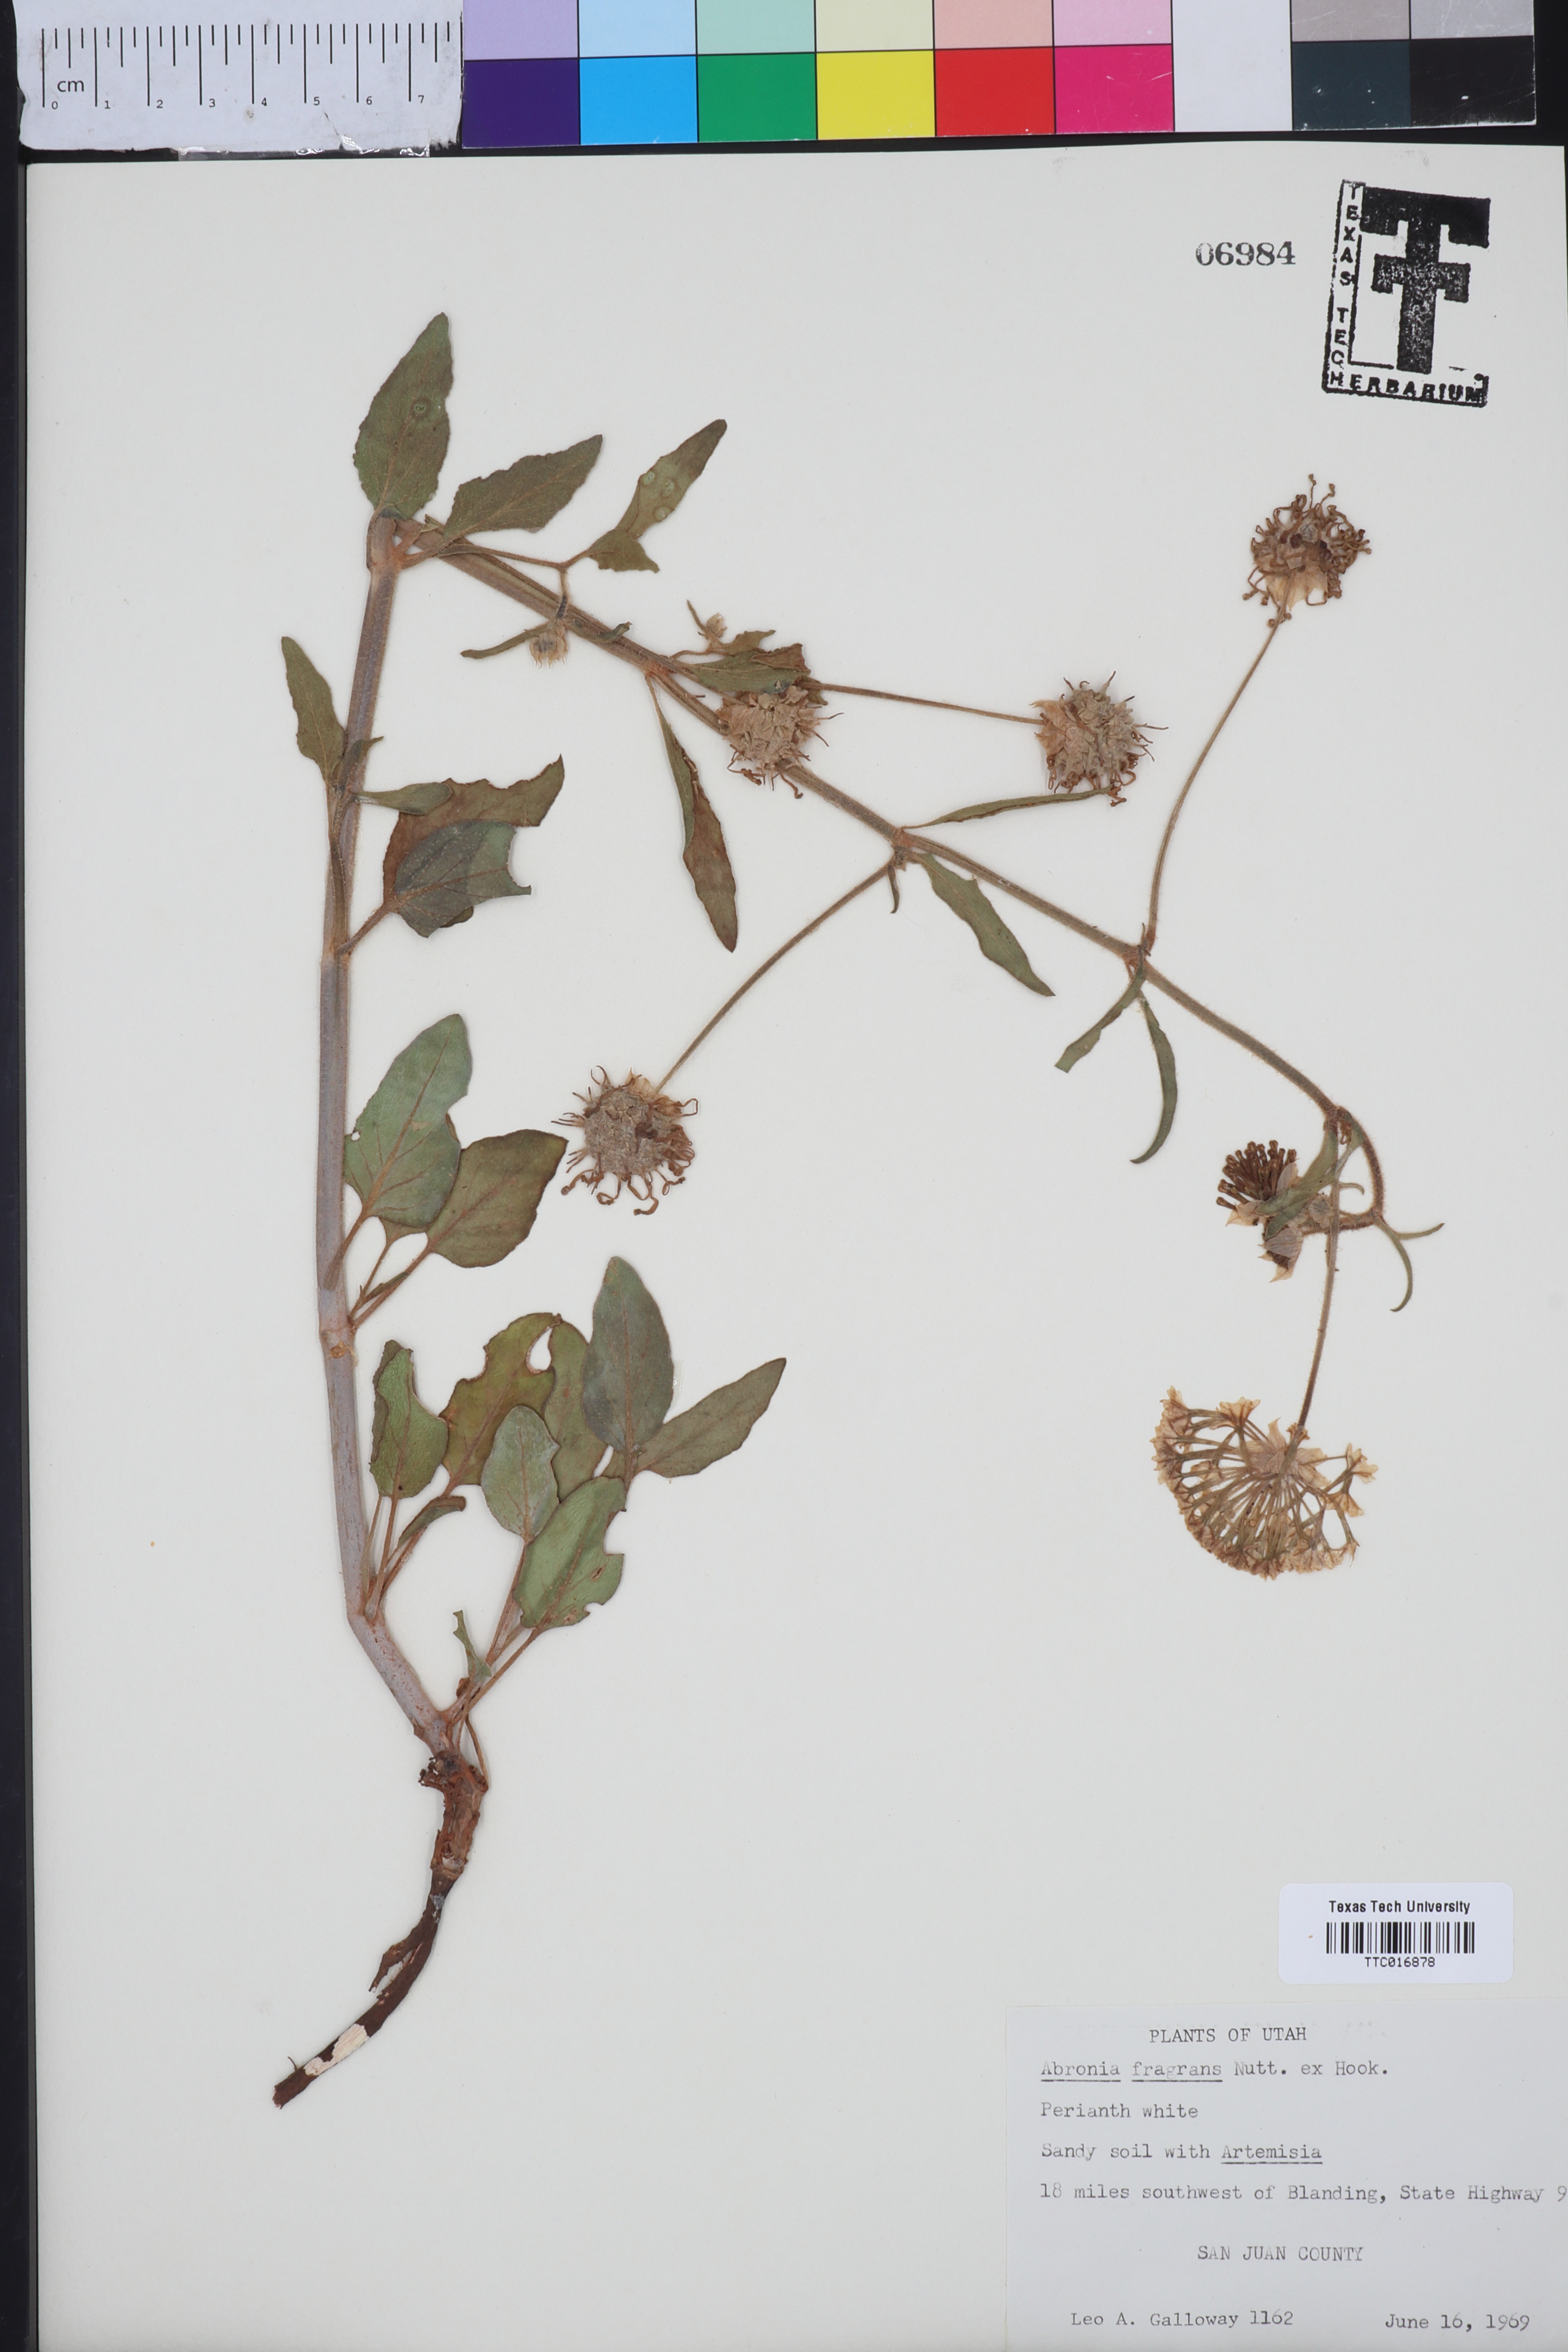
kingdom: Plantae
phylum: Tracheophyta
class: Magnoliopsida
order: Caryophyllales
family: Nyctaginaceae
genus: Abronia
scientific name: Abronia fragrans
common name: Fragrant sand-verbena
